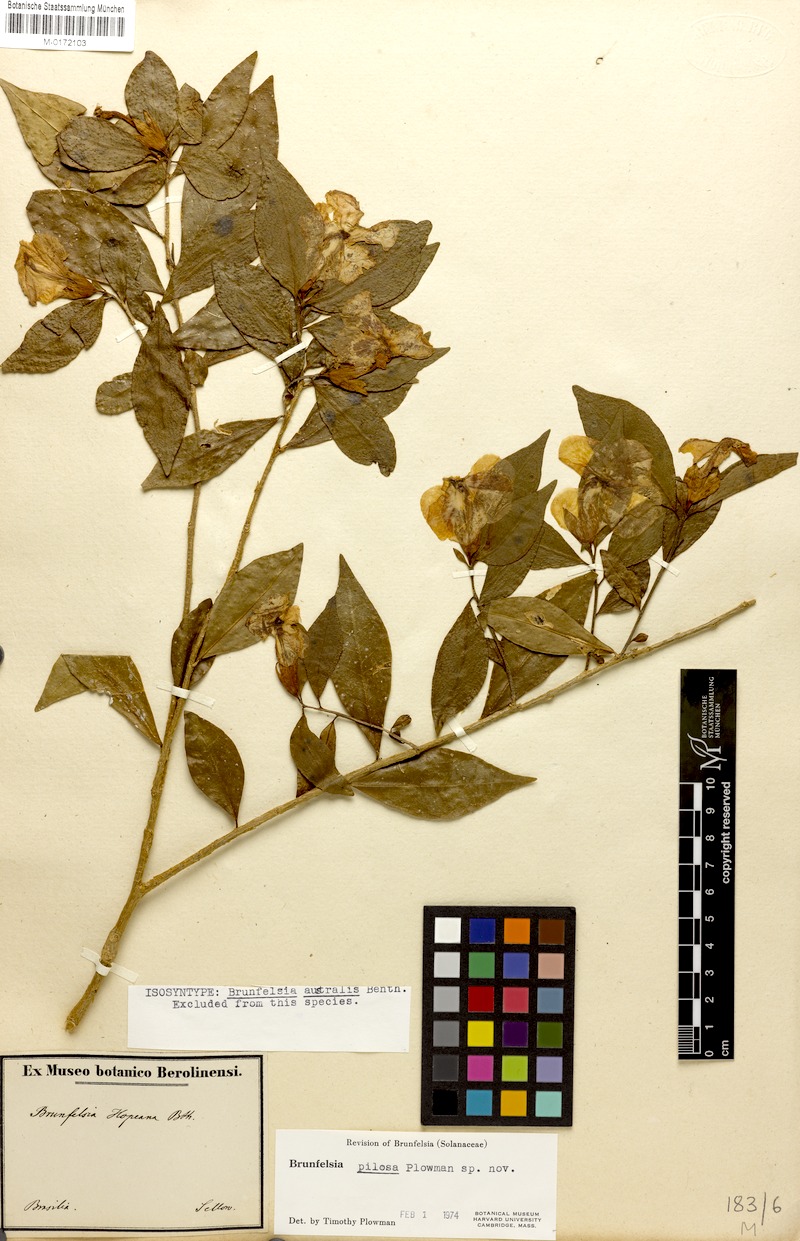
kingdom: Plantae
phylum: Tracheophyta
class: Magnoliopsida
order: Solanales
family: Solanaceae
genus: Brunfelsia
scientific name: Brunfelsia pilosa
